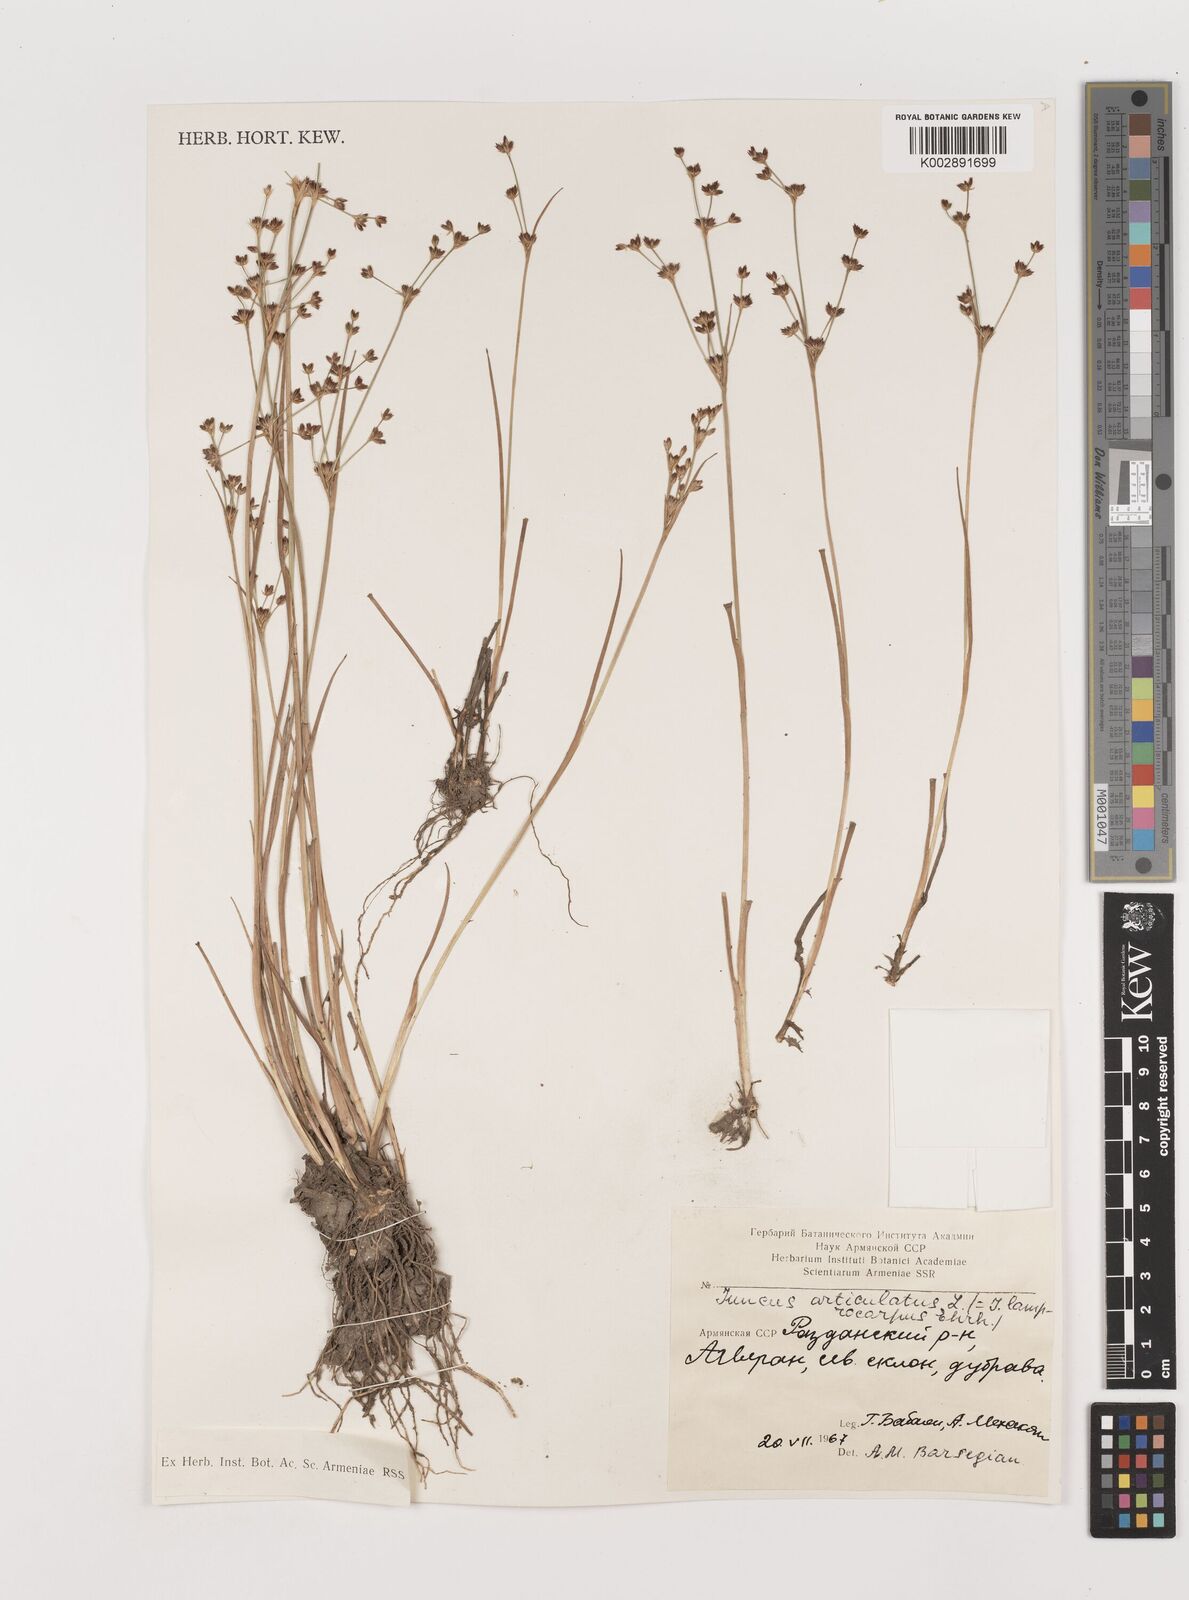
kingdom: Plantae
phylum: Tracheophyta
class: Liliopsida
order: Poales
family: Juncaceae
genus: Juncus
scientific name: Juncus astreptus
